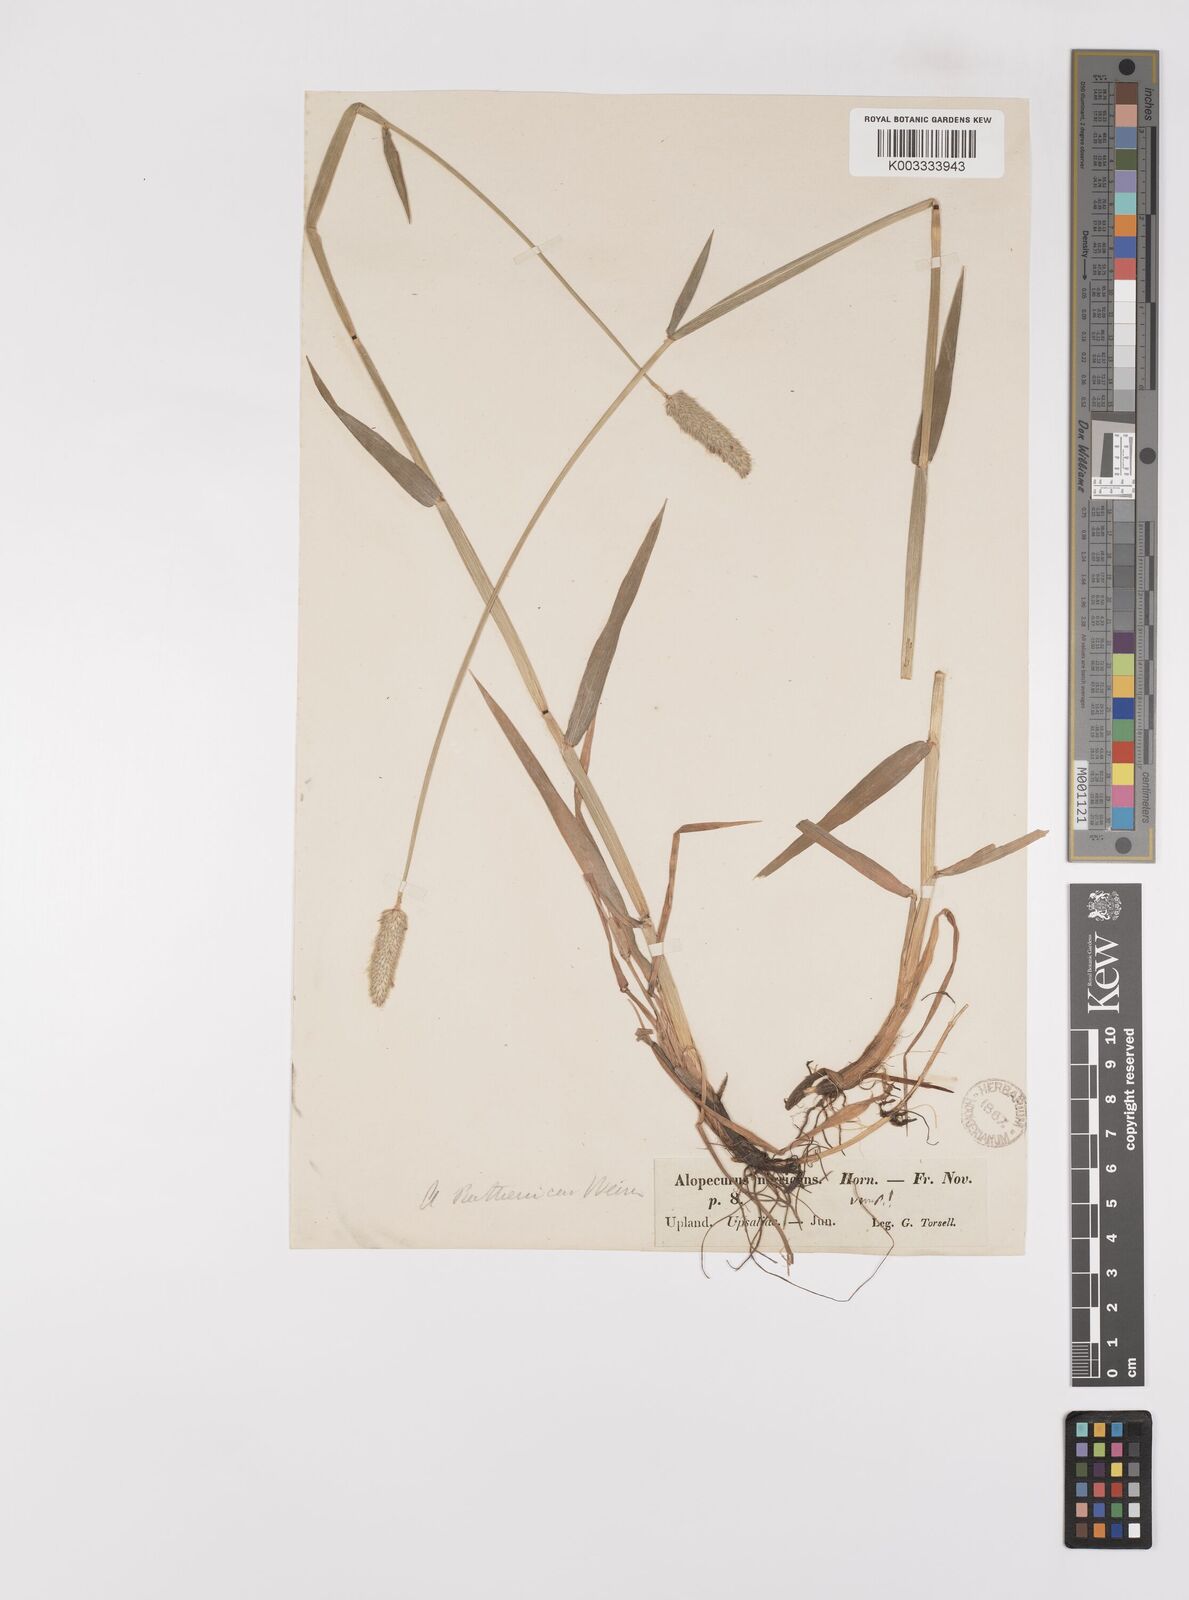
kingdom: Plantae
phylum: Tracheophyta
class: Liliopsida
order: Poales
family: Poaceae
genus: Alopecurus
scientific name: Alopecurus arundinaceus
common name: Creeping meadow foxtail
